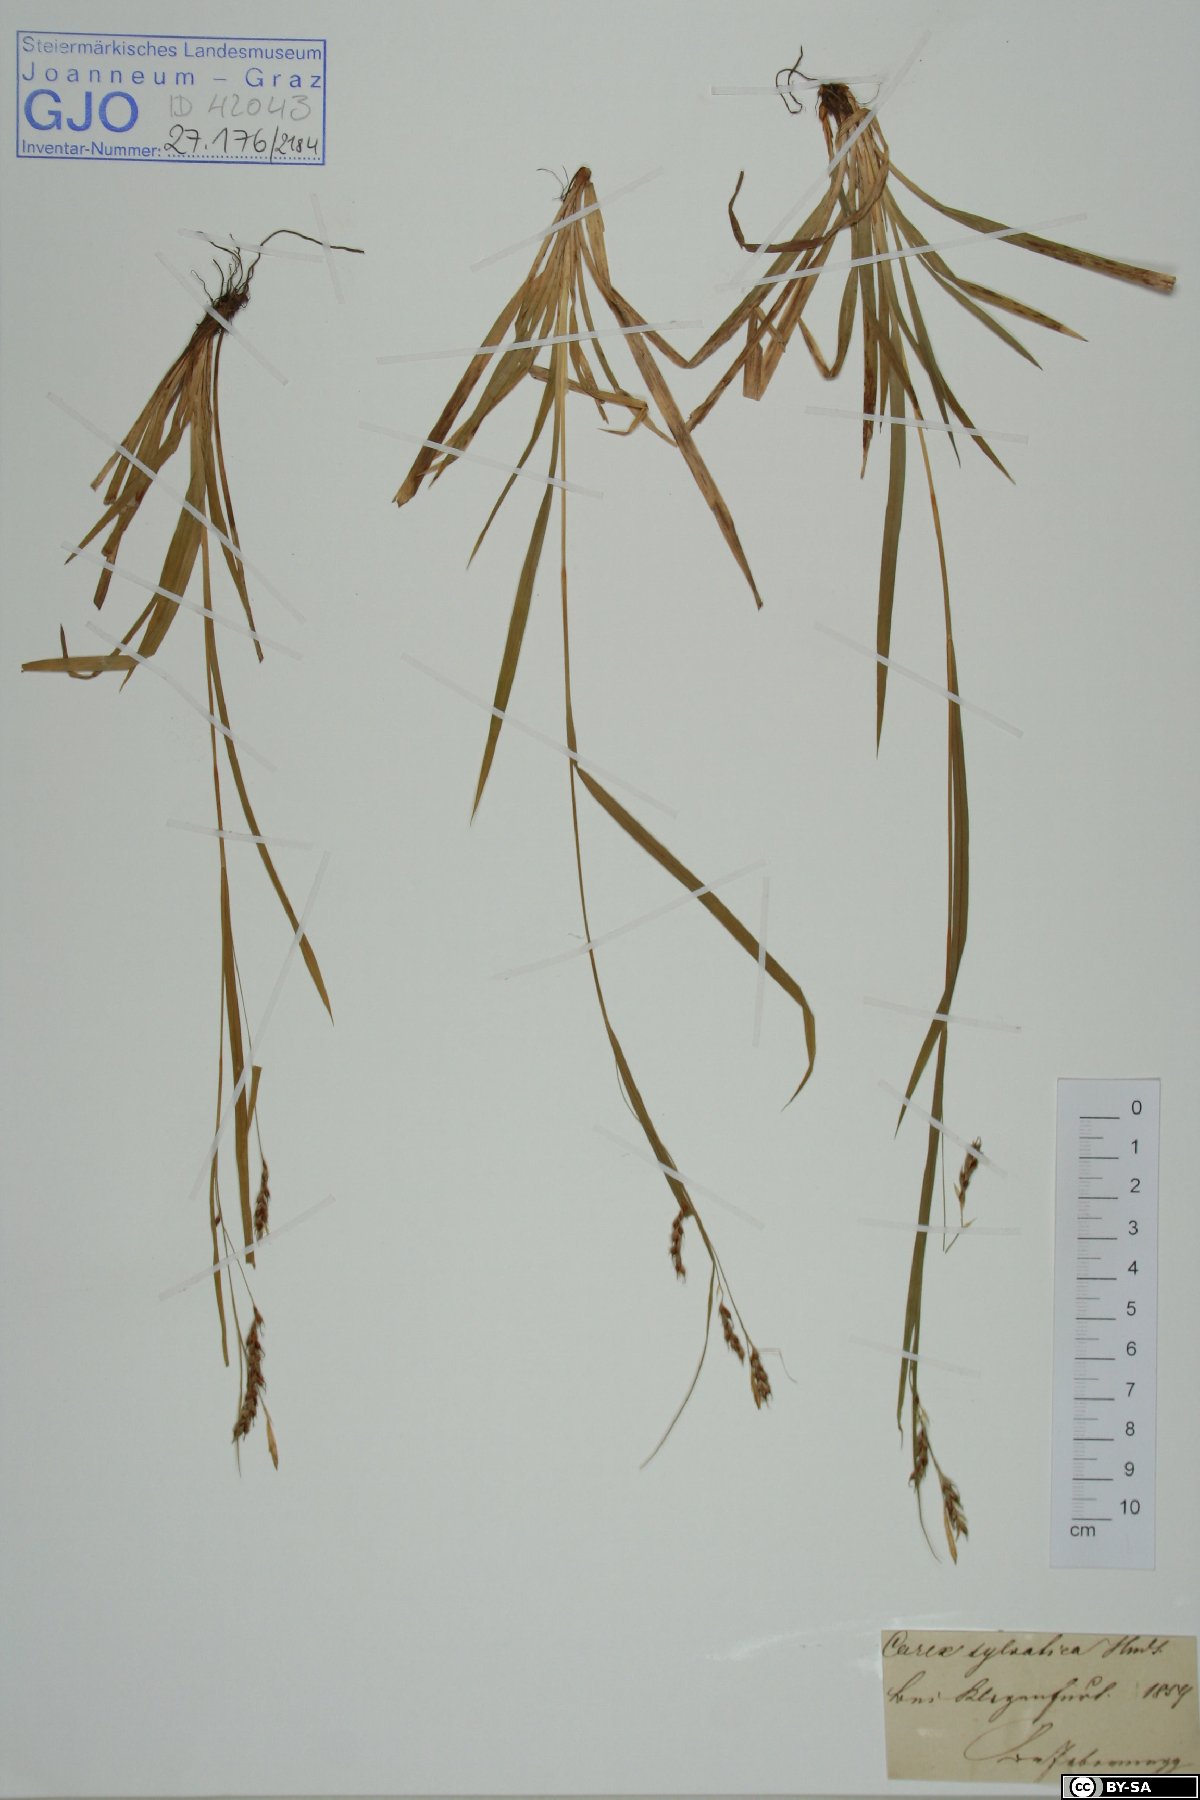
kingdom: Plantae
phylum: Tracheophyta
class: Liliopsida
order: Poales
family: Cyperaceae
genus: Carex
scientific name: Carex sylvatica
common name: Wood-sedge
